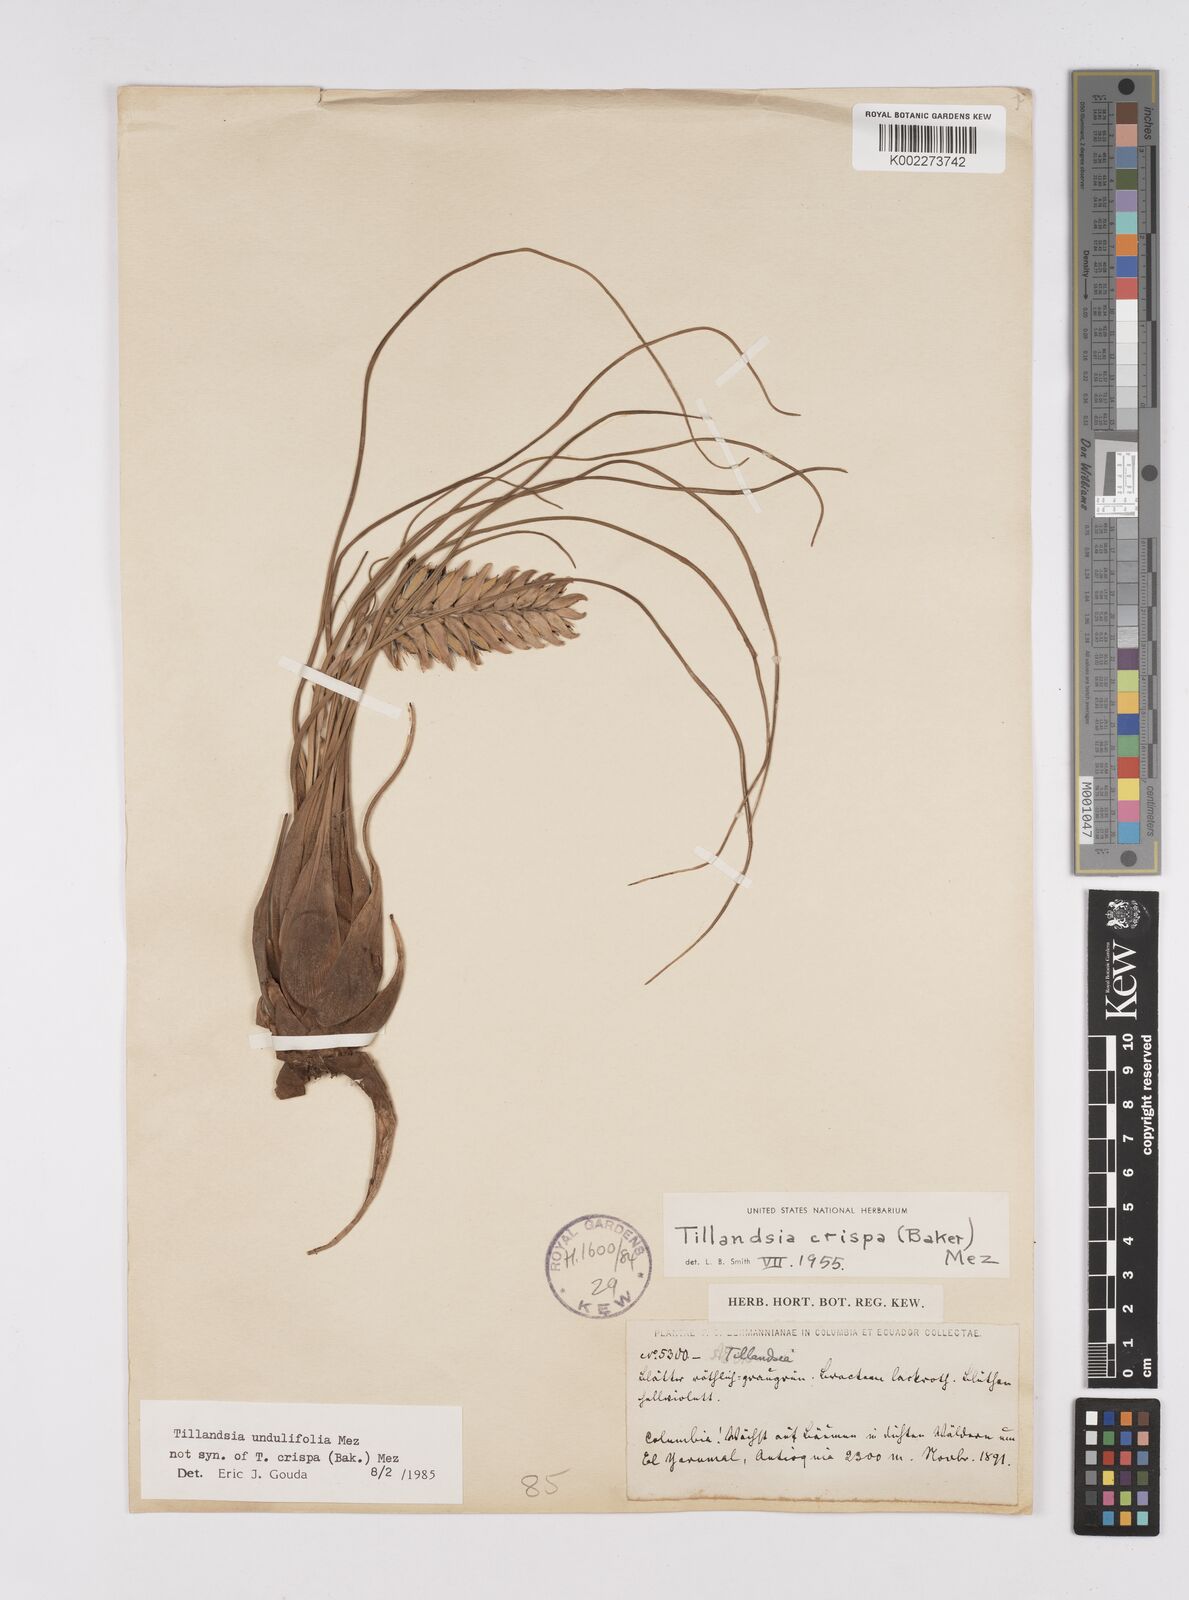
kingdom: Plantae
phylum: Tracheophyta
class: Liliopsida
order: Poales
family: Bromeliaceae
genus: Racinaea
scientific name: Racinaea crispa
